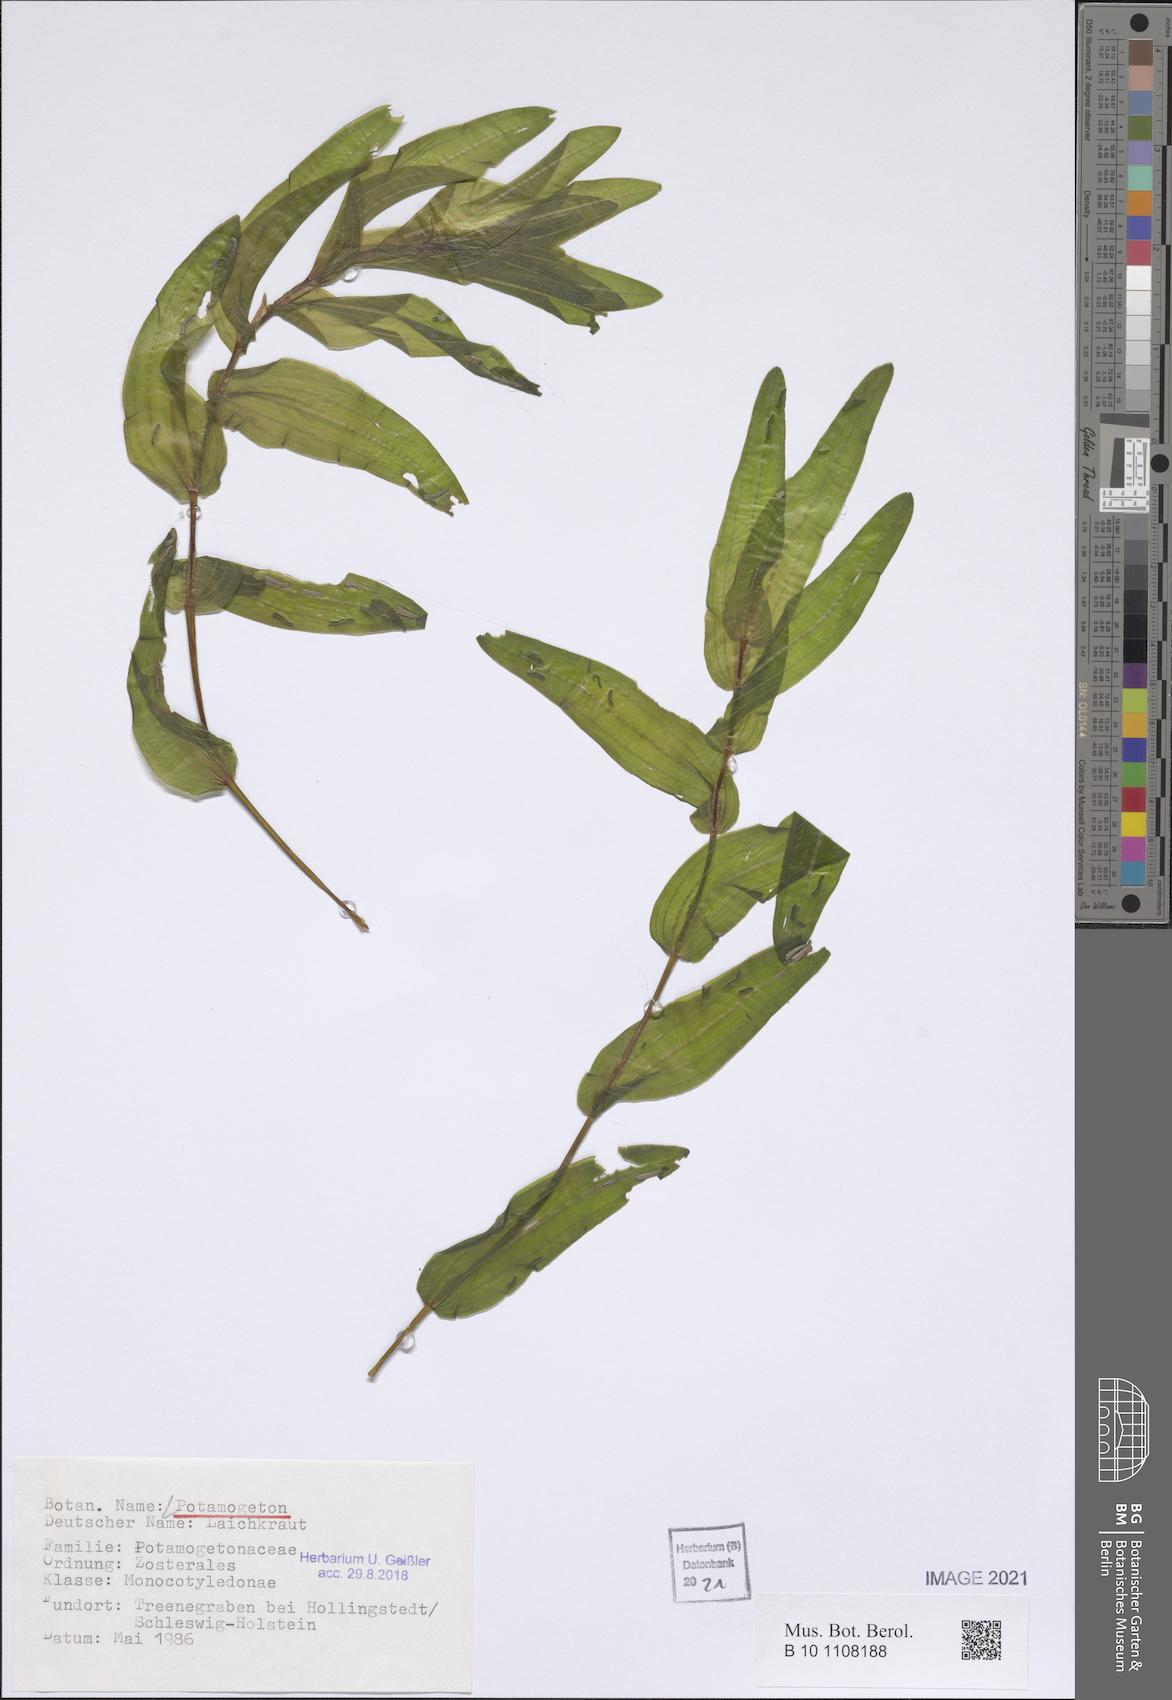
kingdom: Plantae
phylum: Tracheophyta
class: Liliopsida
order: Alismatales
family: Potamogetonaceae
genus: Potamogeton
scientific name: Potamogeton
